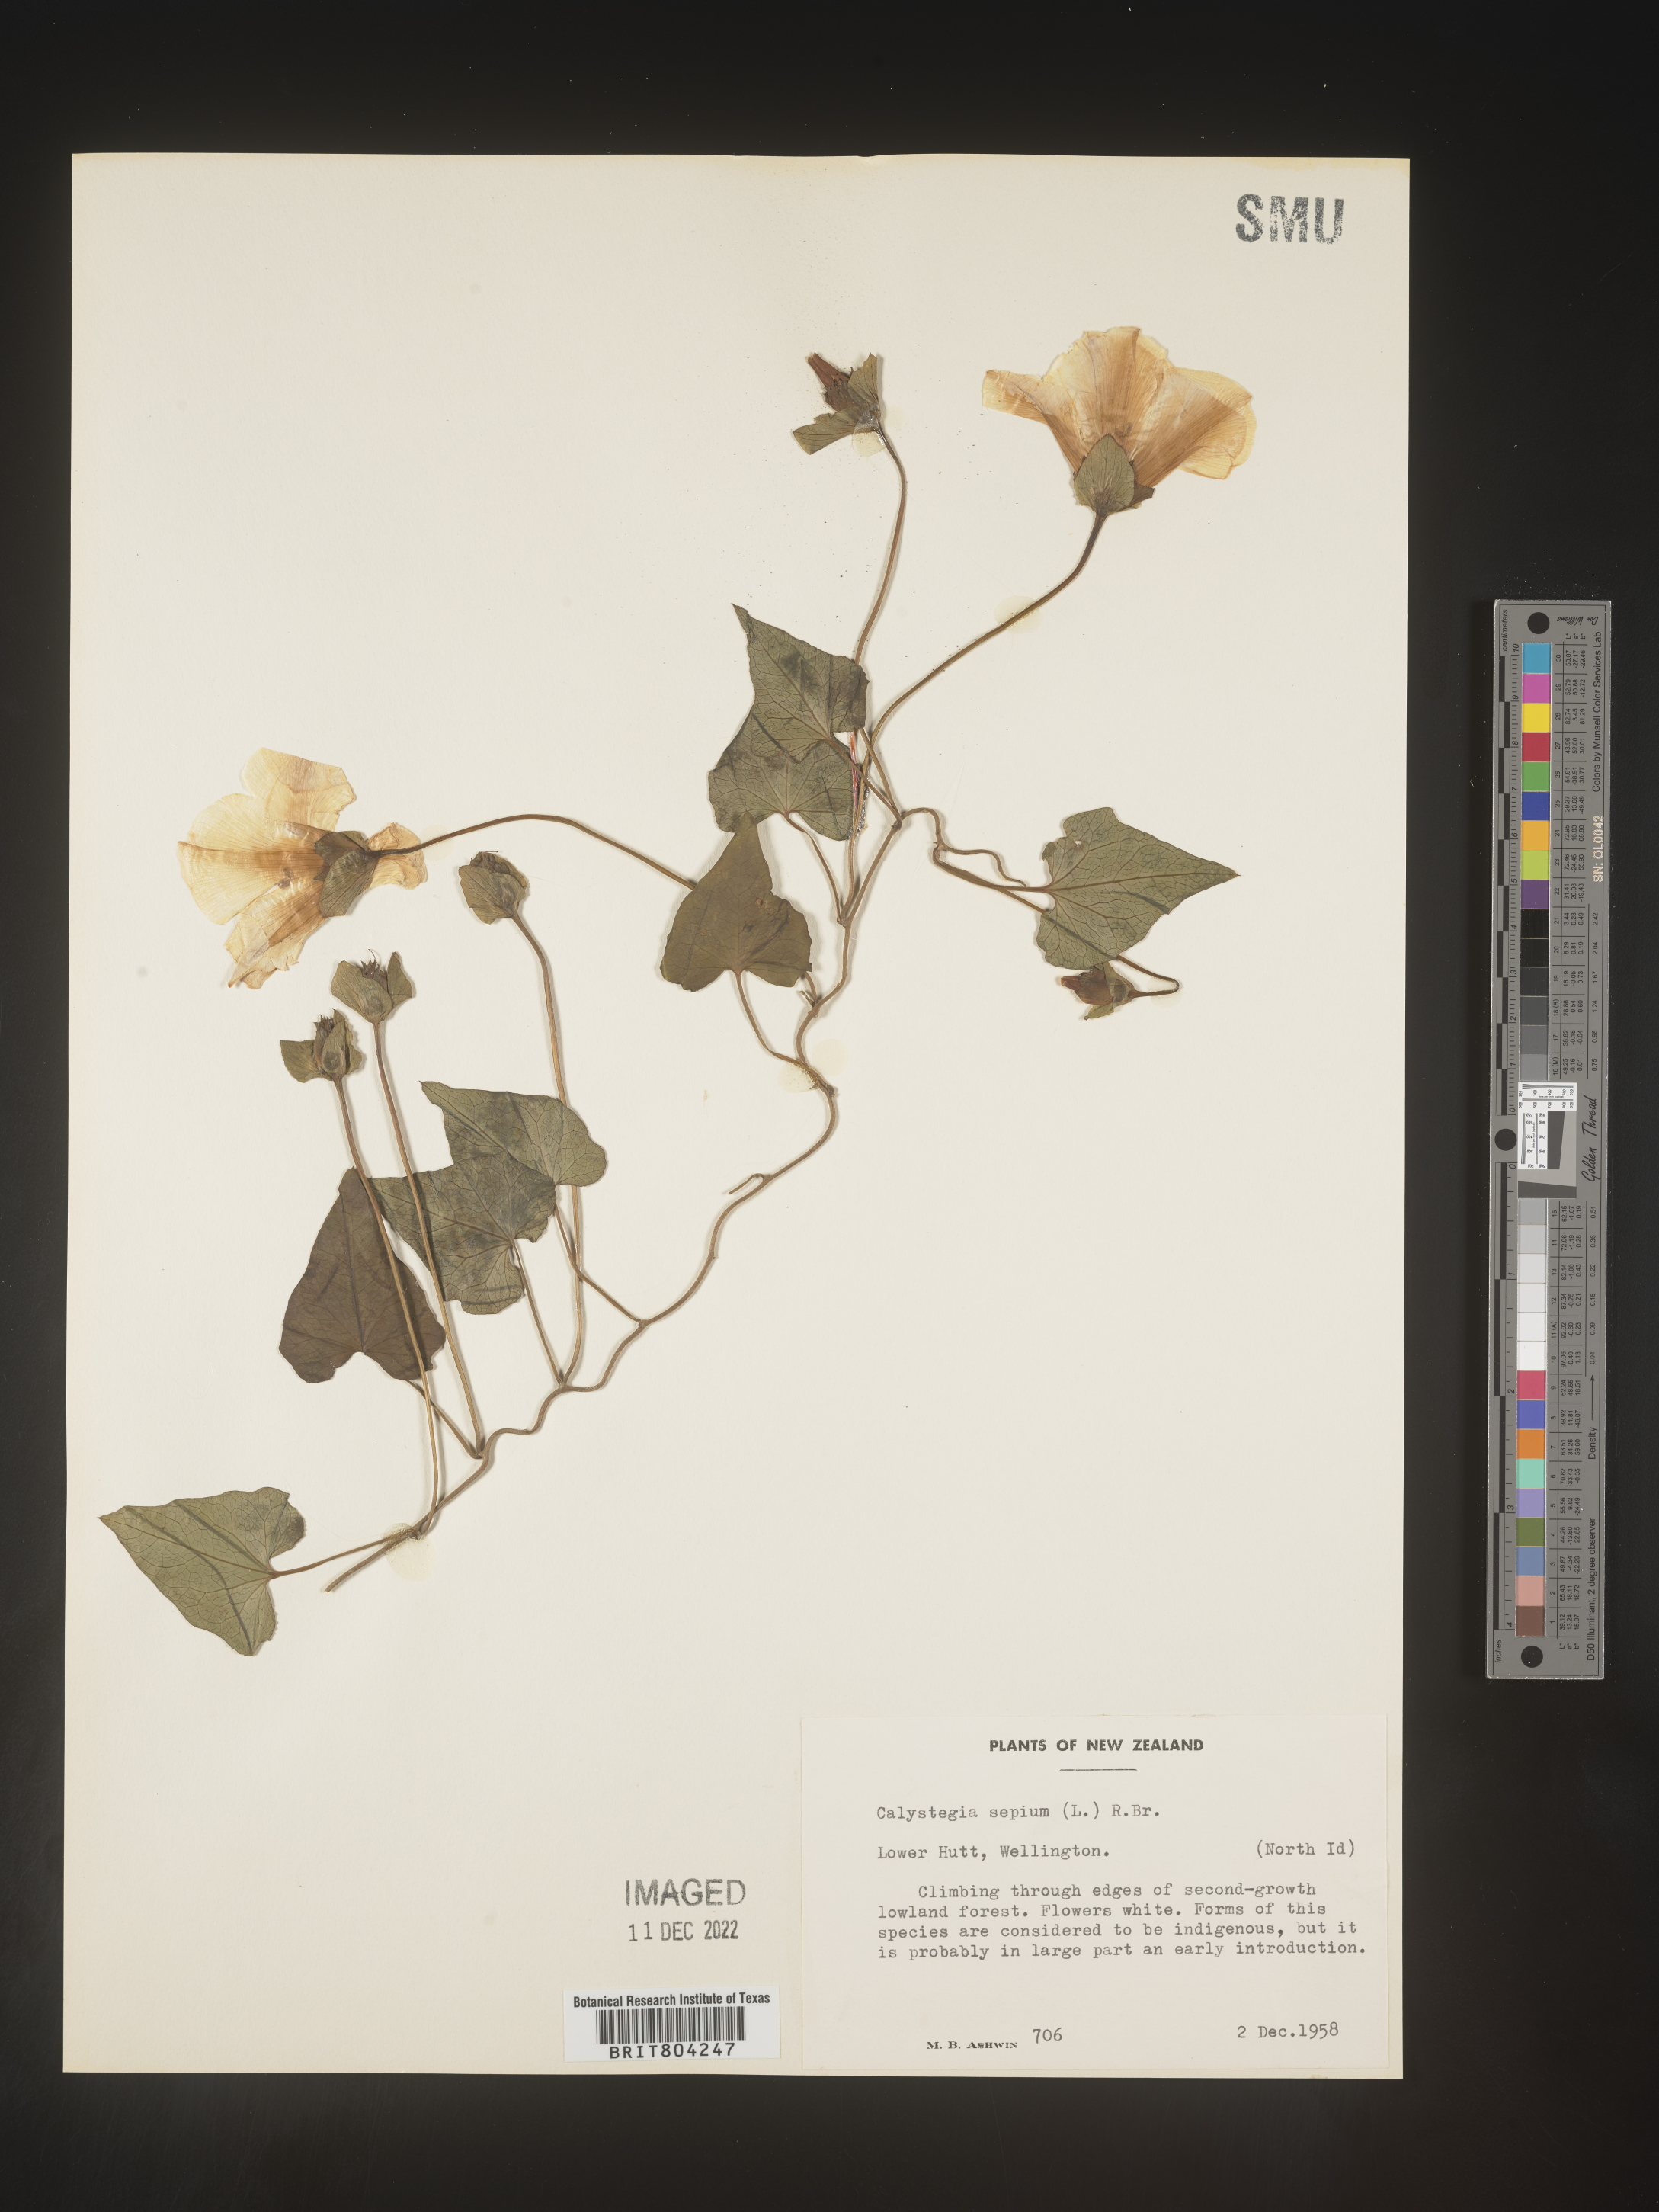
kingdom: Plantae
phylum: Tracheophyta
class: Magnoliopsida
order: Solanales
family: Convolvulaceae
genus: Calystegia
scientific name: Calystegia
